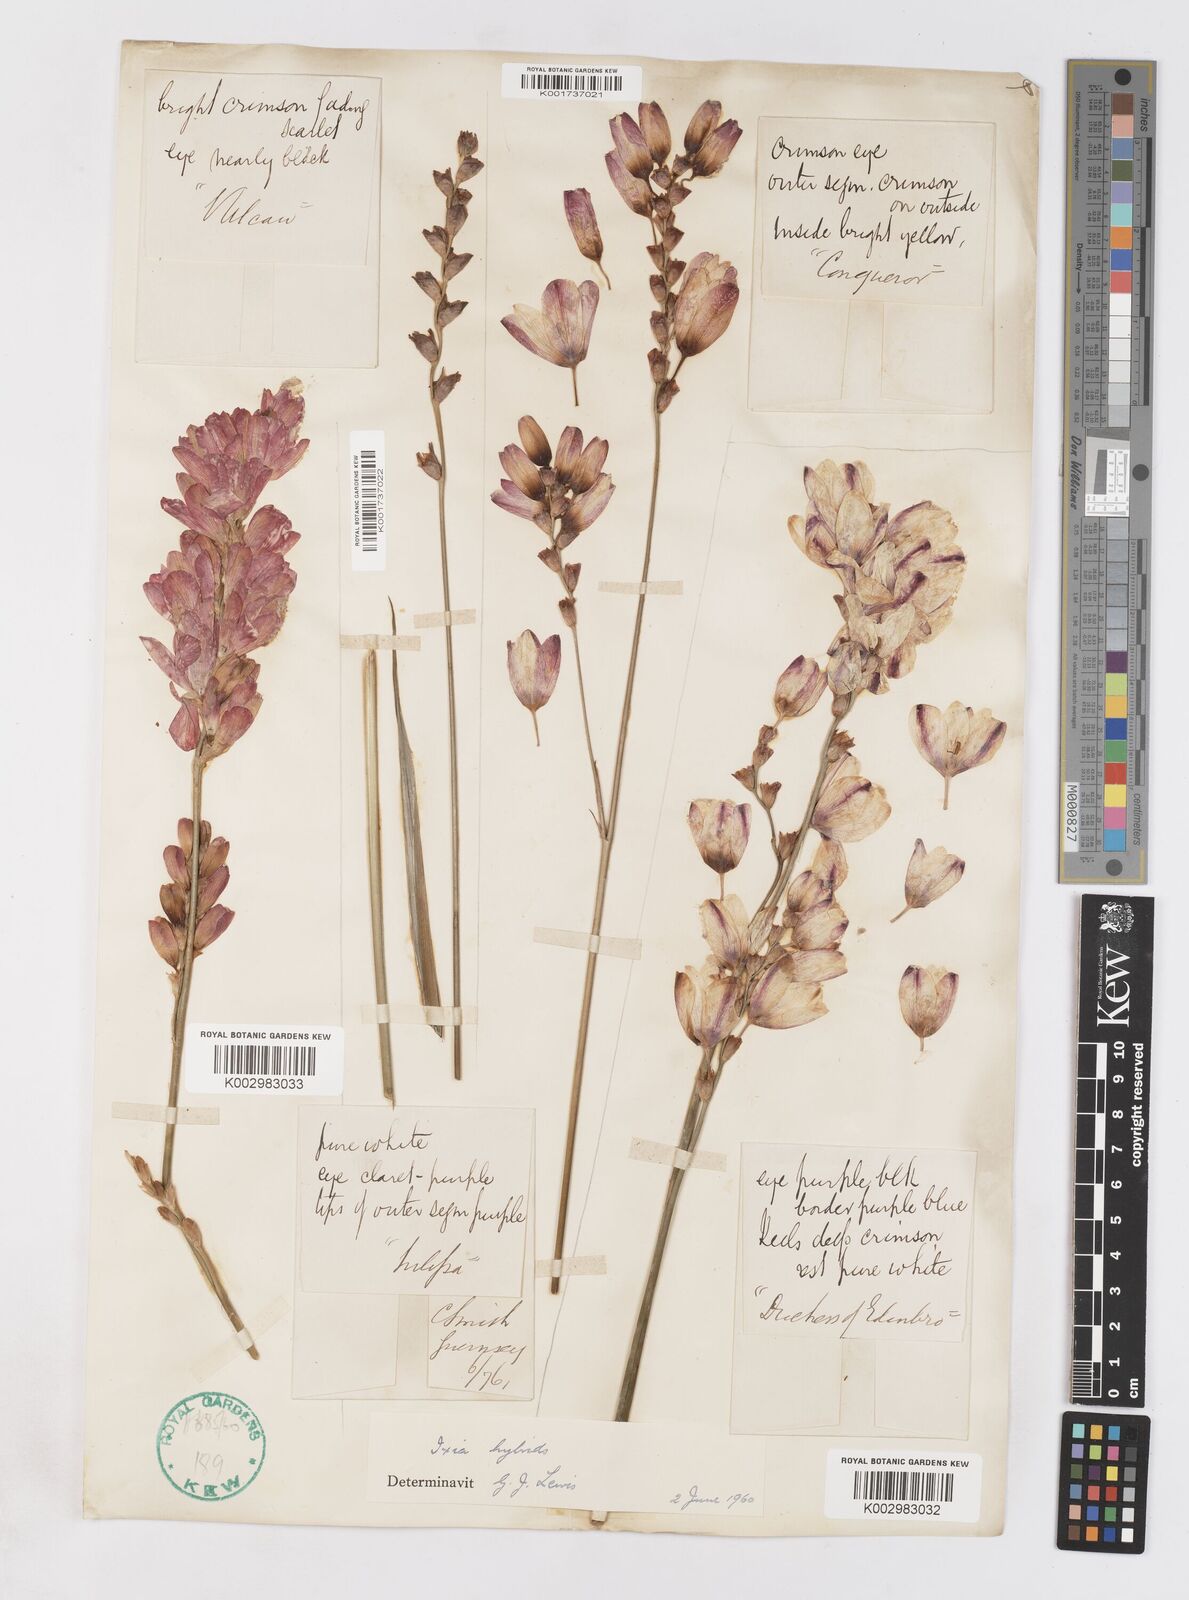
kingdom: Plantae
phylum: Tracheophyta
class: Liliopsida
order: Asparagales
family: Iridaceae
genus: Ixia
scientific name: Ixia polystachya
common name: White-and-yellow-flower cornlily
